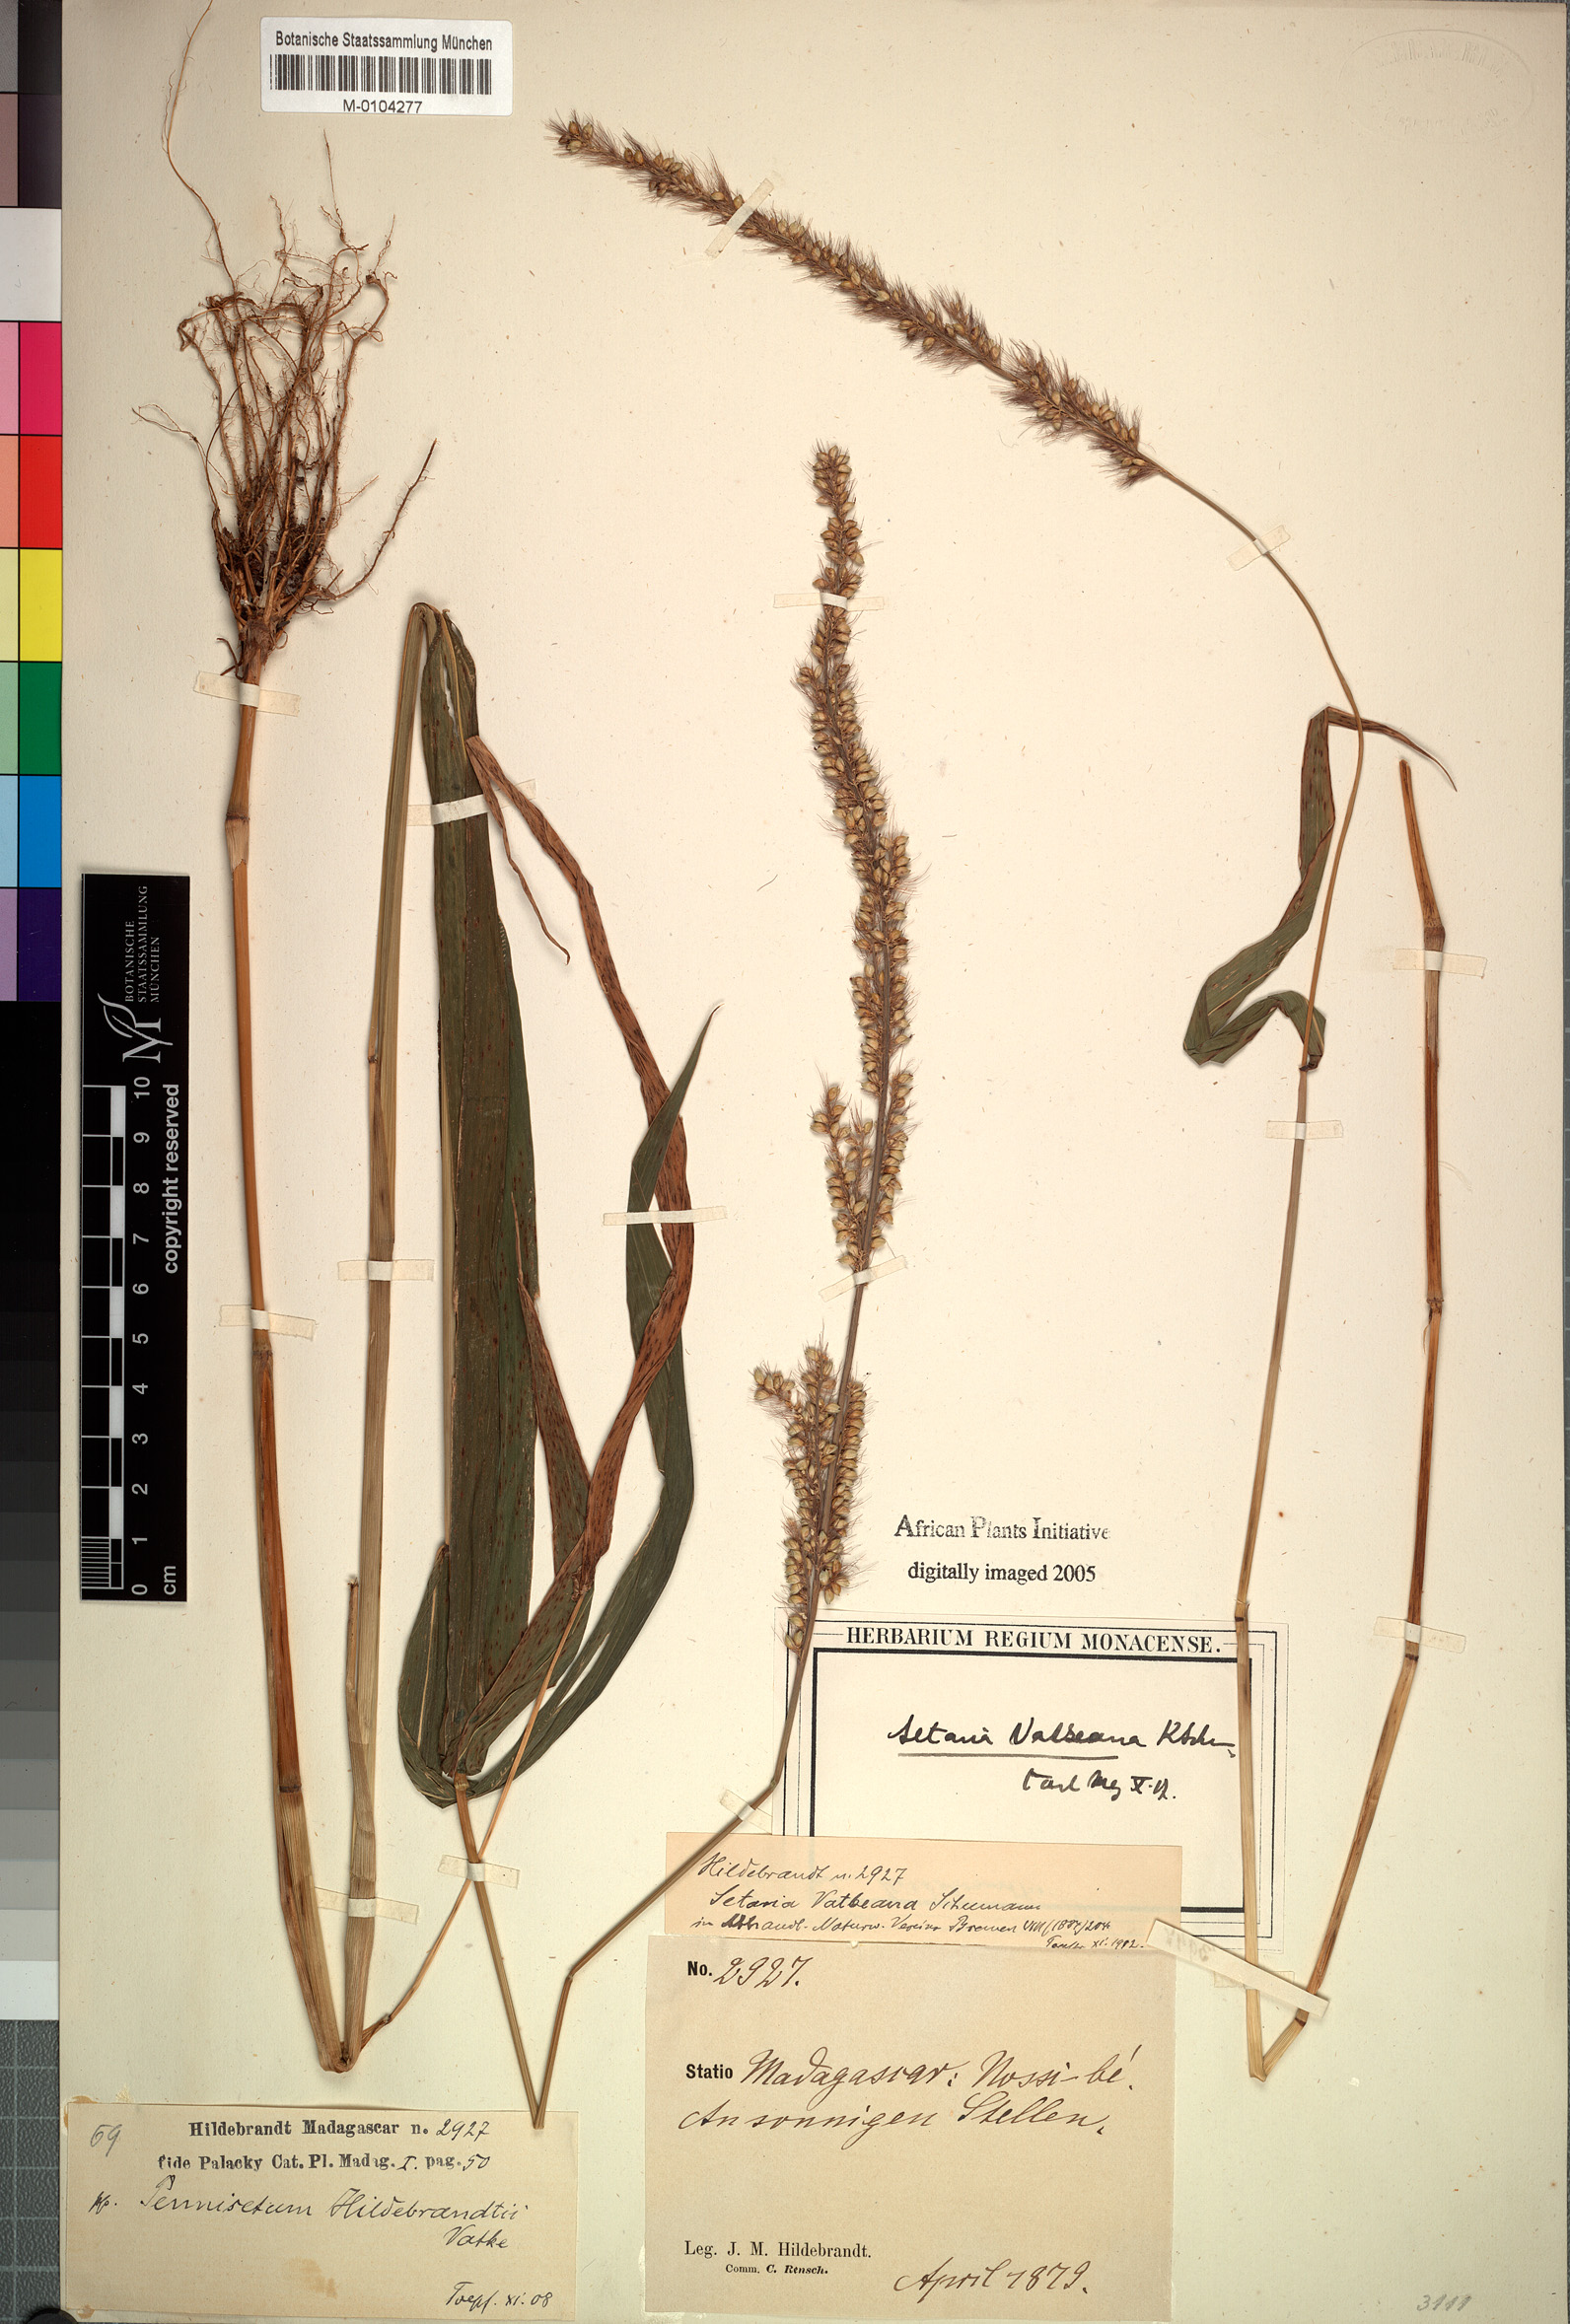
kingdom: Plantae
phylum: Tracheophyta
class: Liliopsida
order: Poales
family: Poaceae
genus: Setaria
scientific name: Setaria vatkeana
